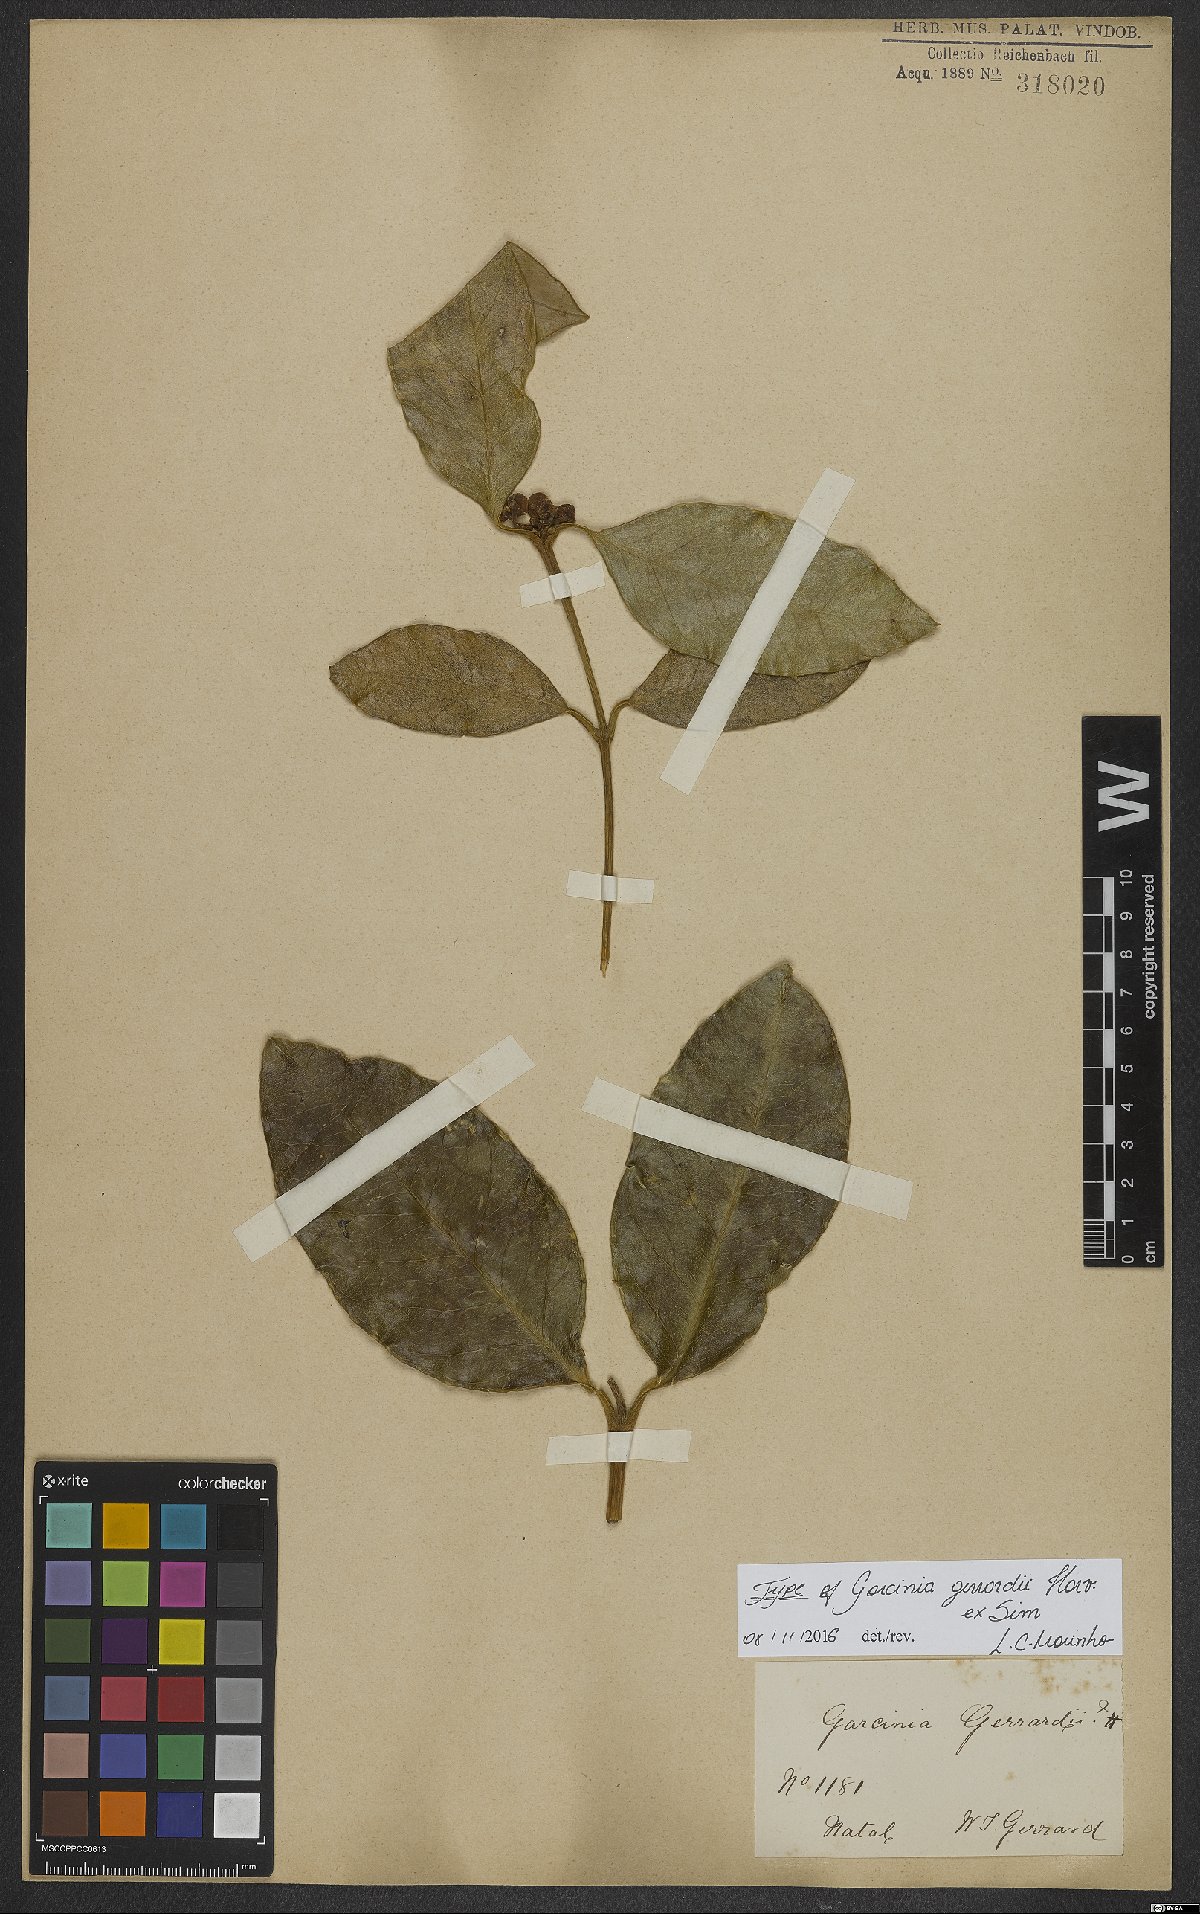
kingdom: Plantae
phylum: Tracheophyta
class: Magnoliopsida
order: Malpighiales
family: Clusiaceae
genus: Garcinia
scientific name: Garcinia gerrardii
